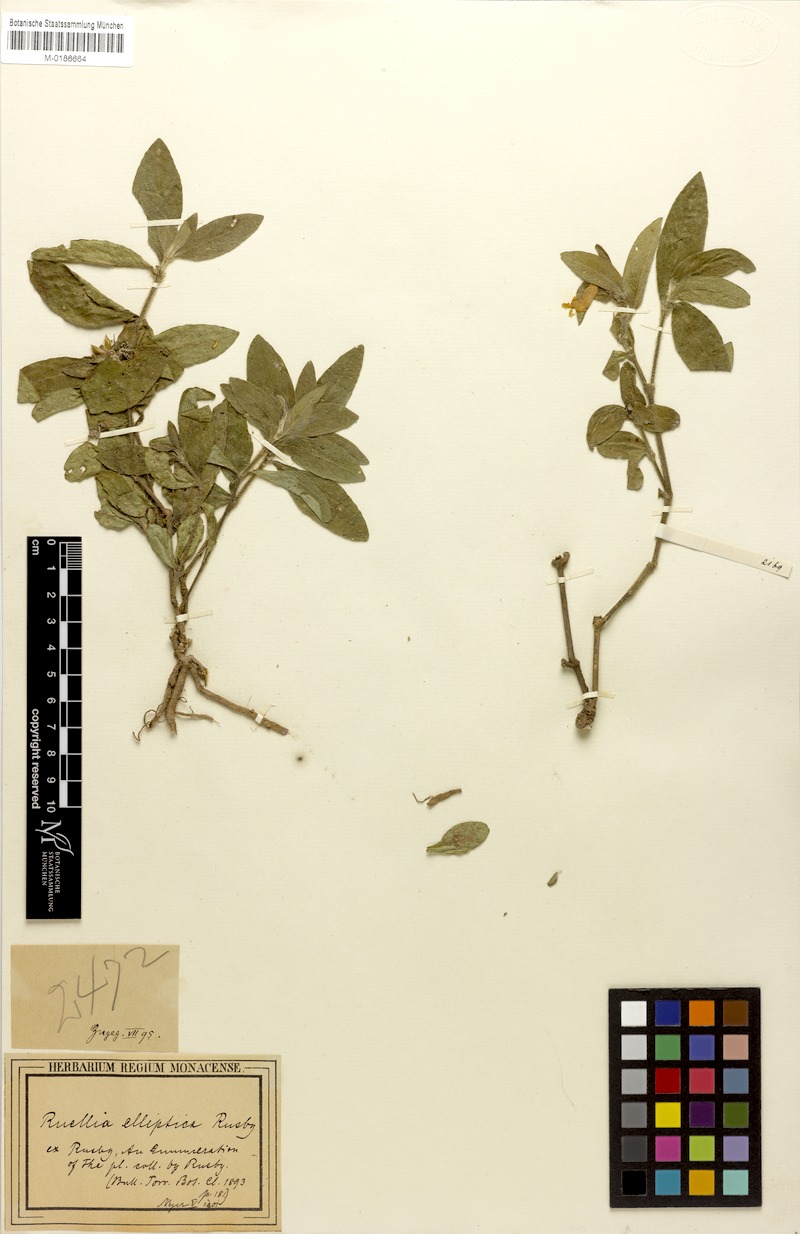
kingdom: Plantae
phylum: Tracheophyta
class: Magnoliopsida
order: Lamiales
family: Acanthaceae
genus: Ruellia
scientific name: Ruellia geminiflora
